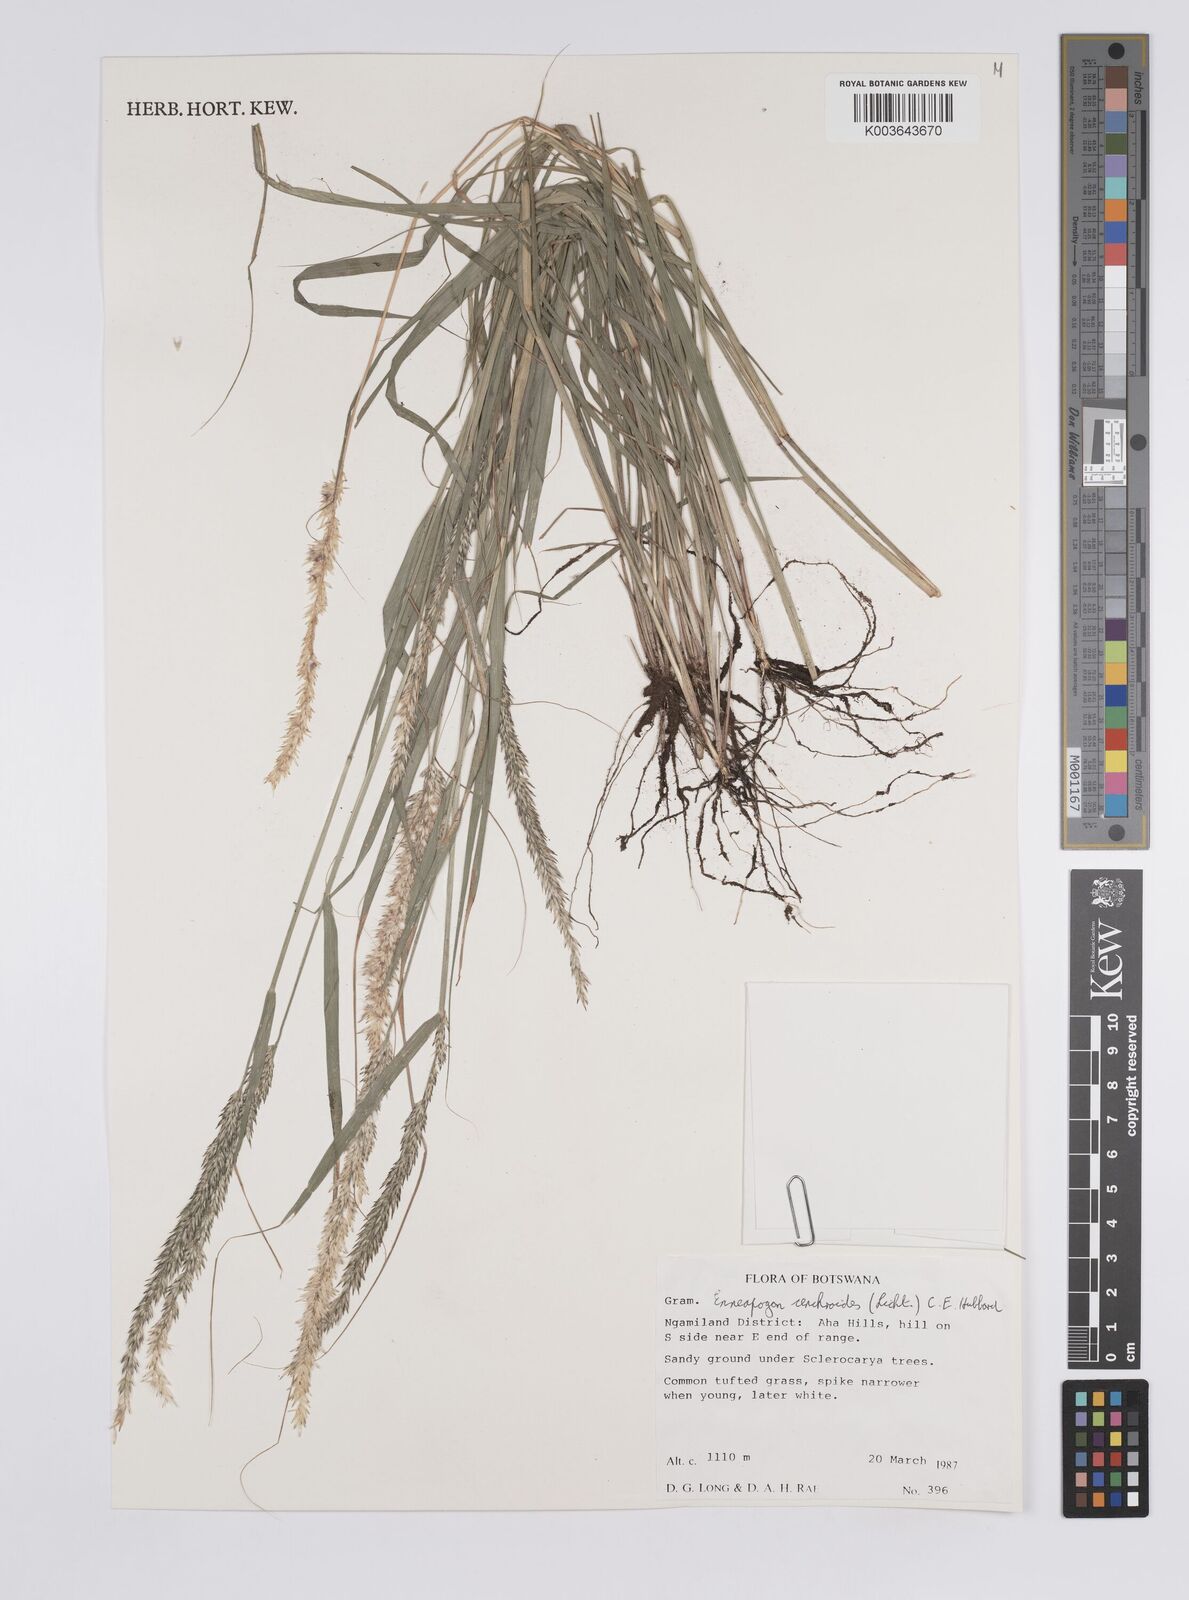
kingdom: Plantae
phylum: Tracheophyta
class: Liliopsida
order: Poales
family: Poaceae
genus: Enneapogon
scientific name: Enneapogon cenchroides
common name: Soft feather pappusgrass
